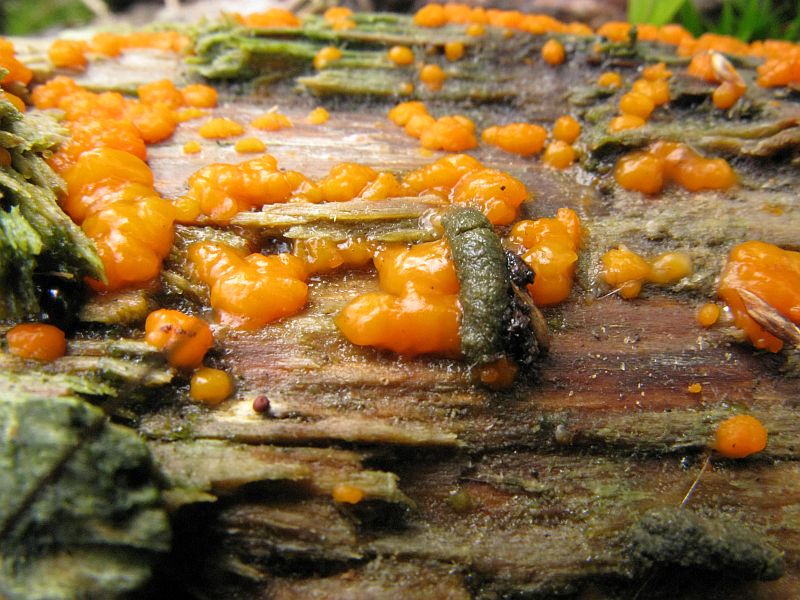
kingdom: Fungi
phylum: Basidiomycota
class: Dacrymycetes
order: Dacrymycetales
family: Dacrymycetaceae
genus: Dacrymyces
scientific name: Dacrymyces stillatus
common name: almindelig tåresvamp
